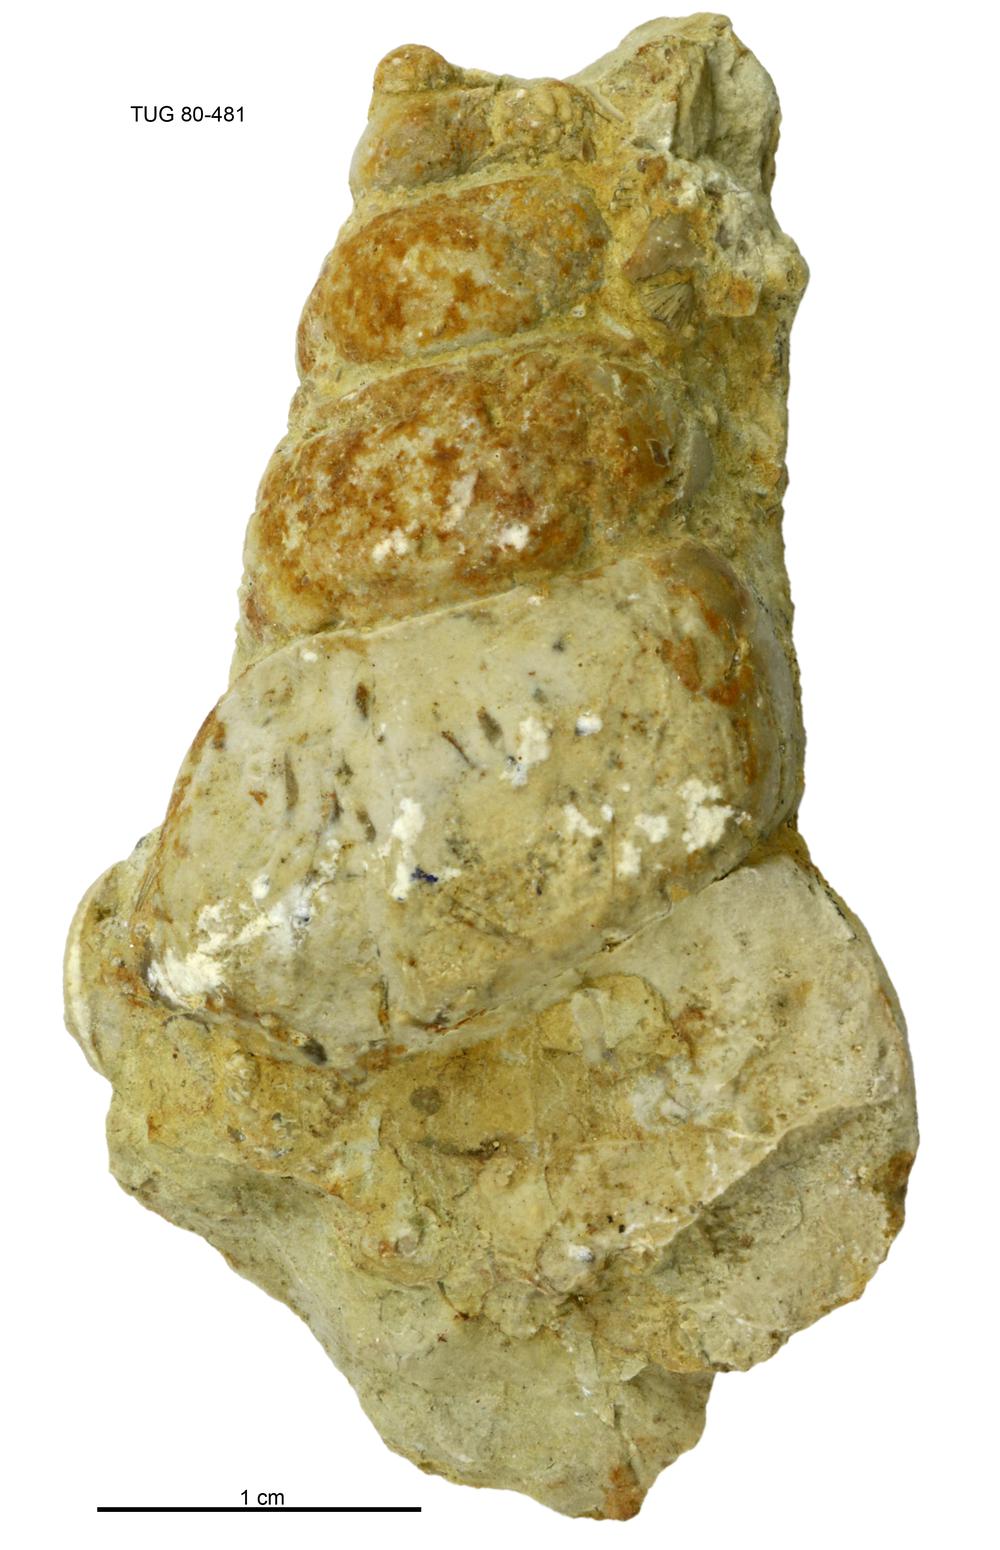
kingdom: Animalia
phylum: Mollusca
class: Gastropoda
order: Pleurotomariida
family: Murchisoniidae
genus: Murchisonia
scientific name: Murchisonia insignis
